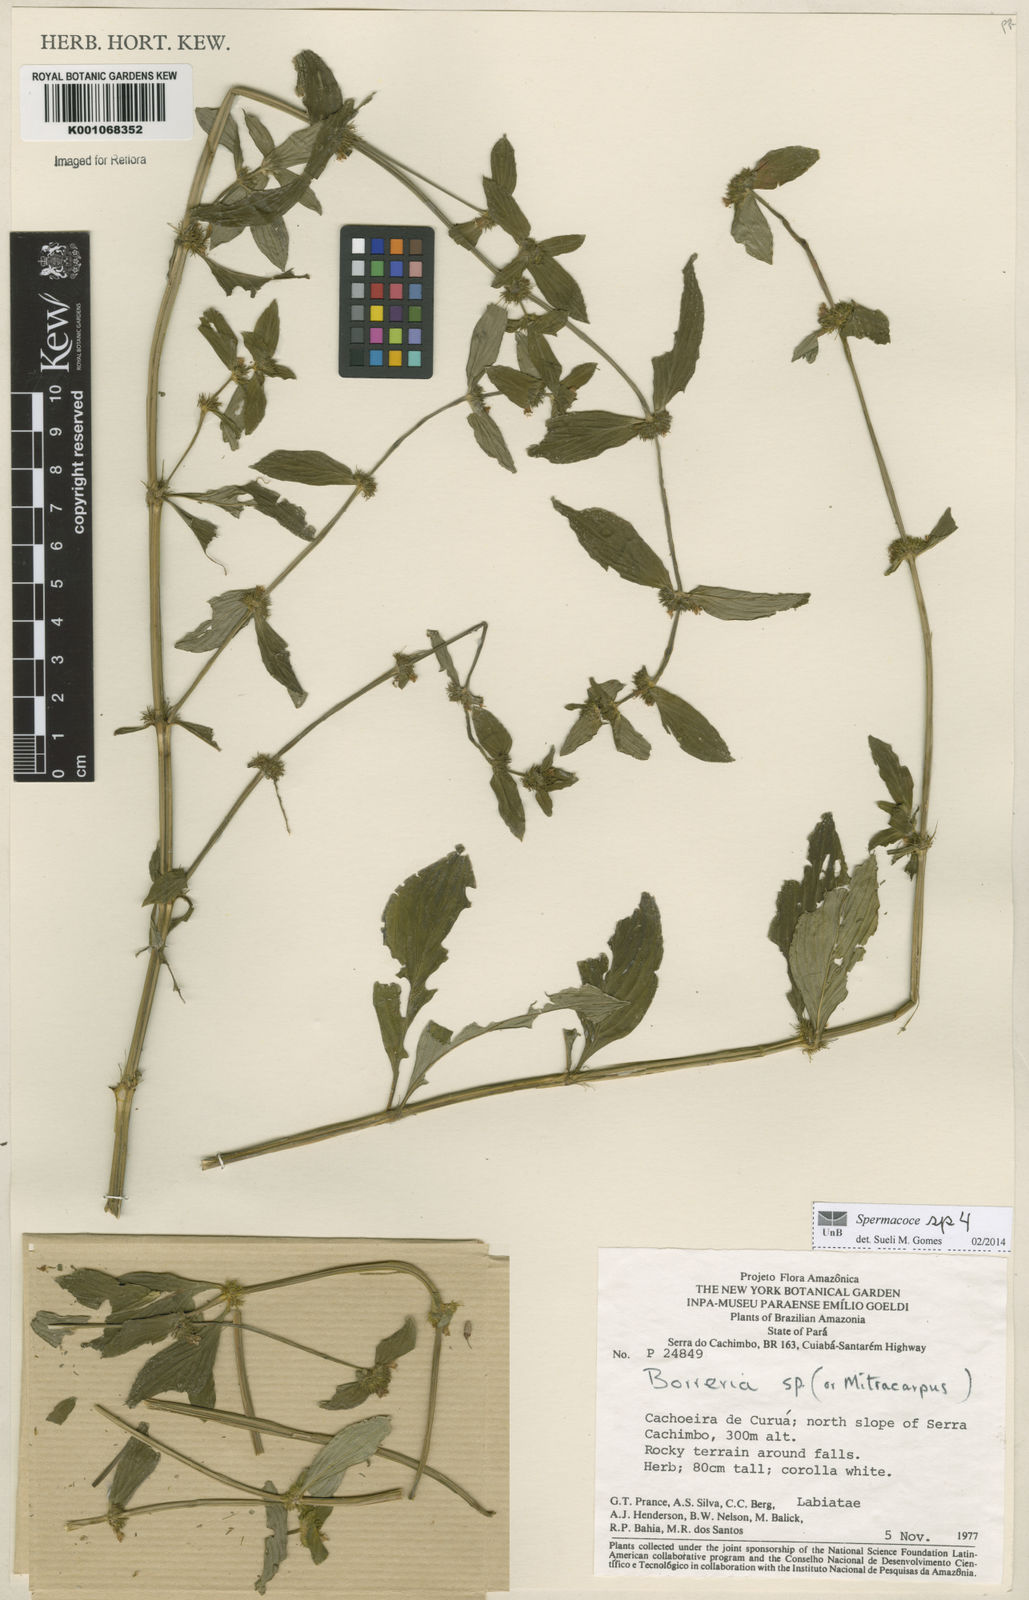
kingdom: Plantae
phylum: Tracheophyta
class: Magnoliopsida
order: Gentianales
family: Rubiaceae
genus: Spermacoce
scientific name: Spermacoce
